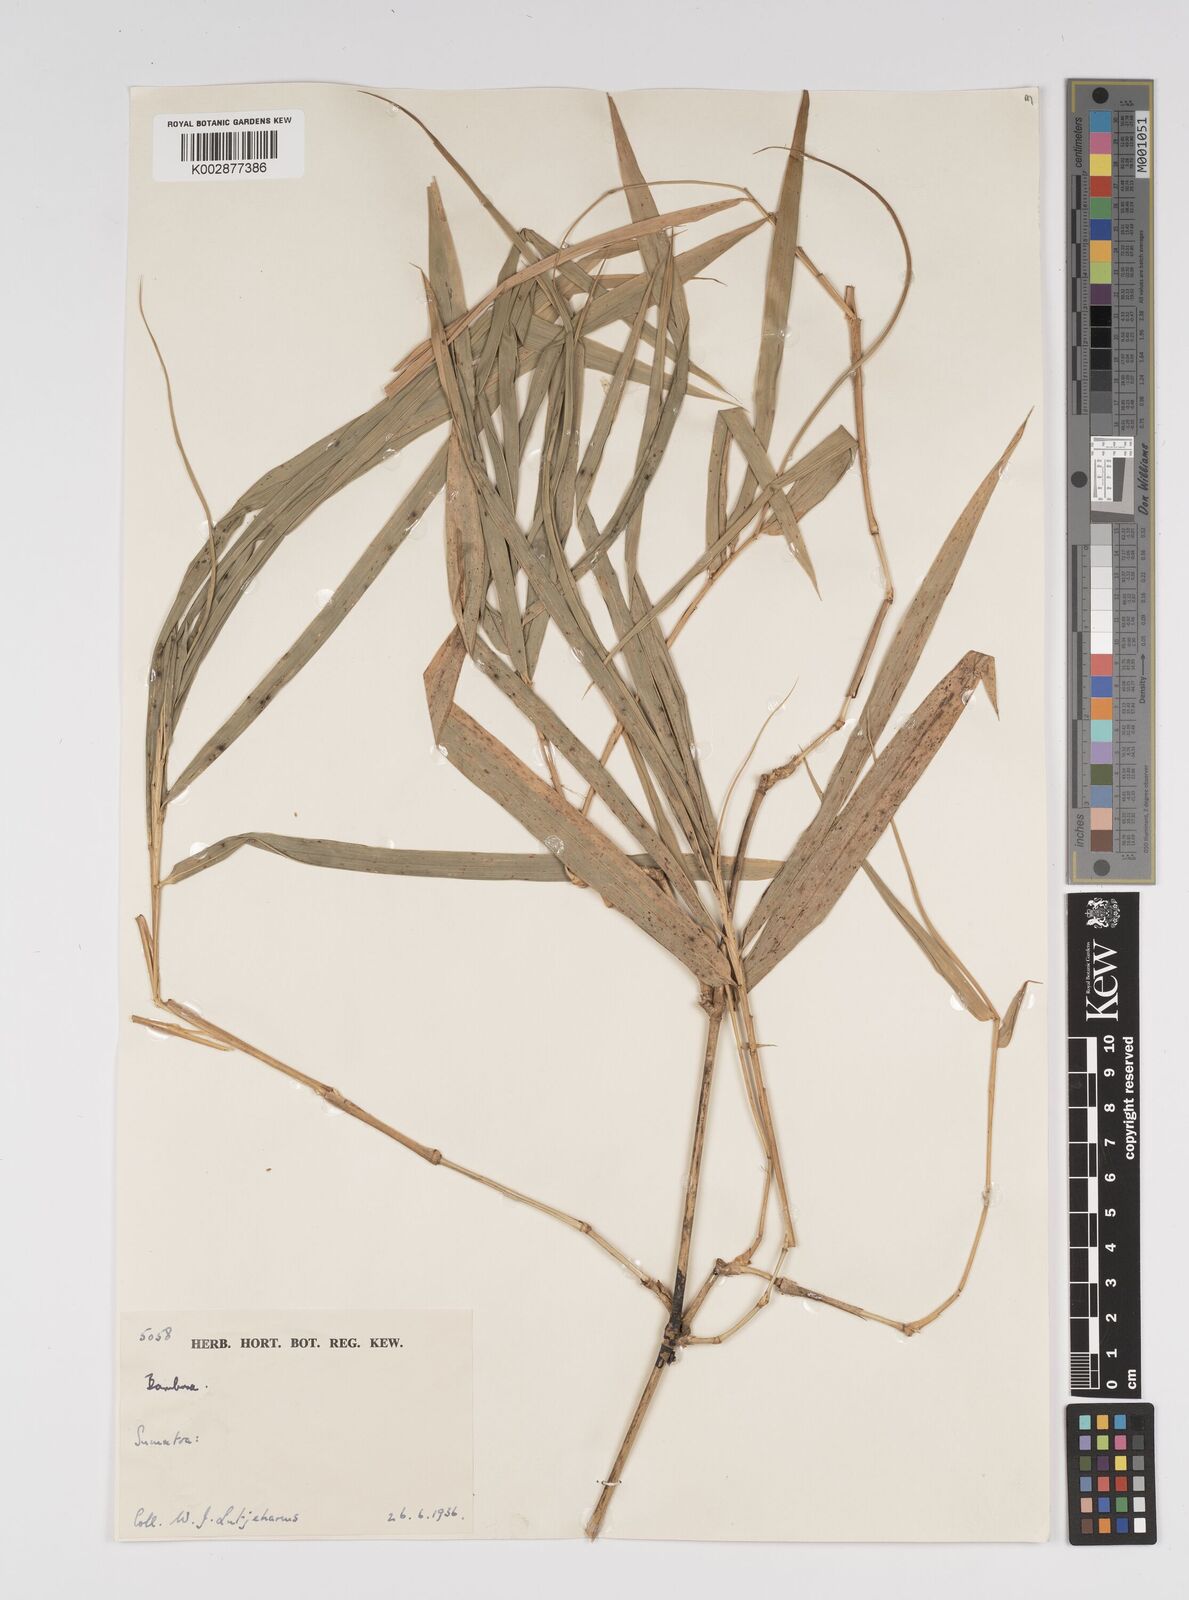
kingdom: Plantae
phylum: Tracheophyta
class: Liliopsida
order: Poales
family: Poaceae
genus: Bambusa
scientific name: Bambusa
